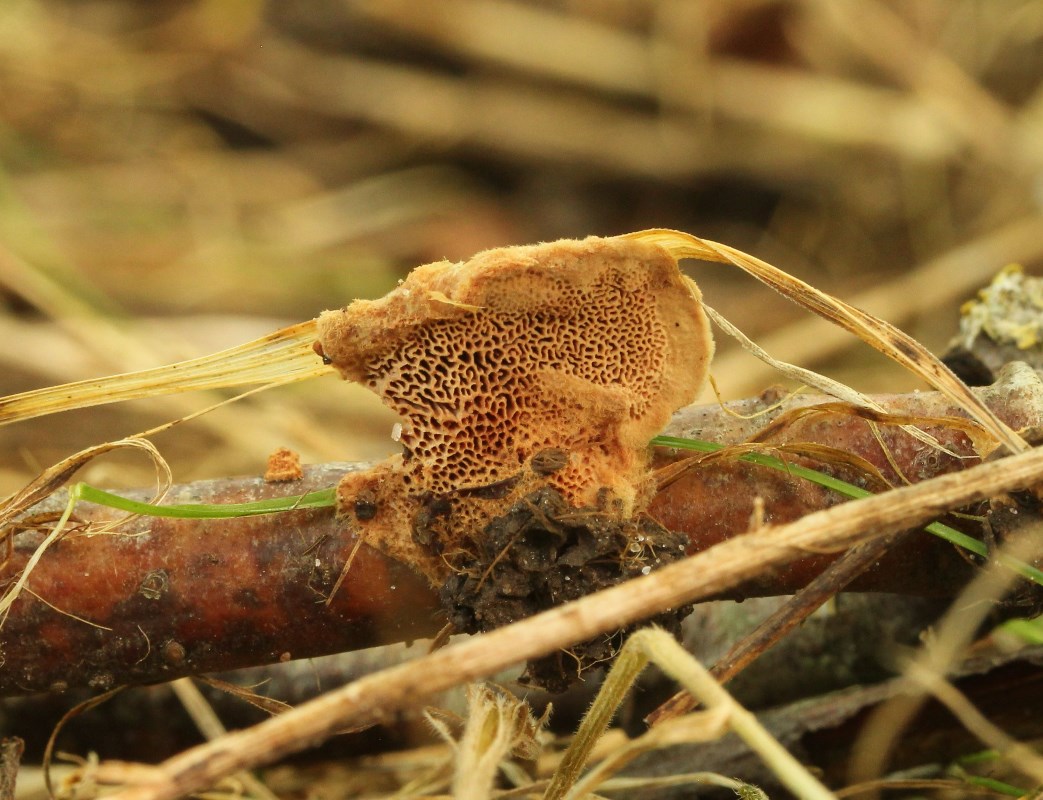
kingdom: Fungi
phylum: Basidiomycota
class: Agaricomycetes
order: Polyporales
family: Phanerochaetaceae
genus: Hapalopilus
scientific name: Hapalopilus rutilans
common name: rødlig okkerporesvamp
